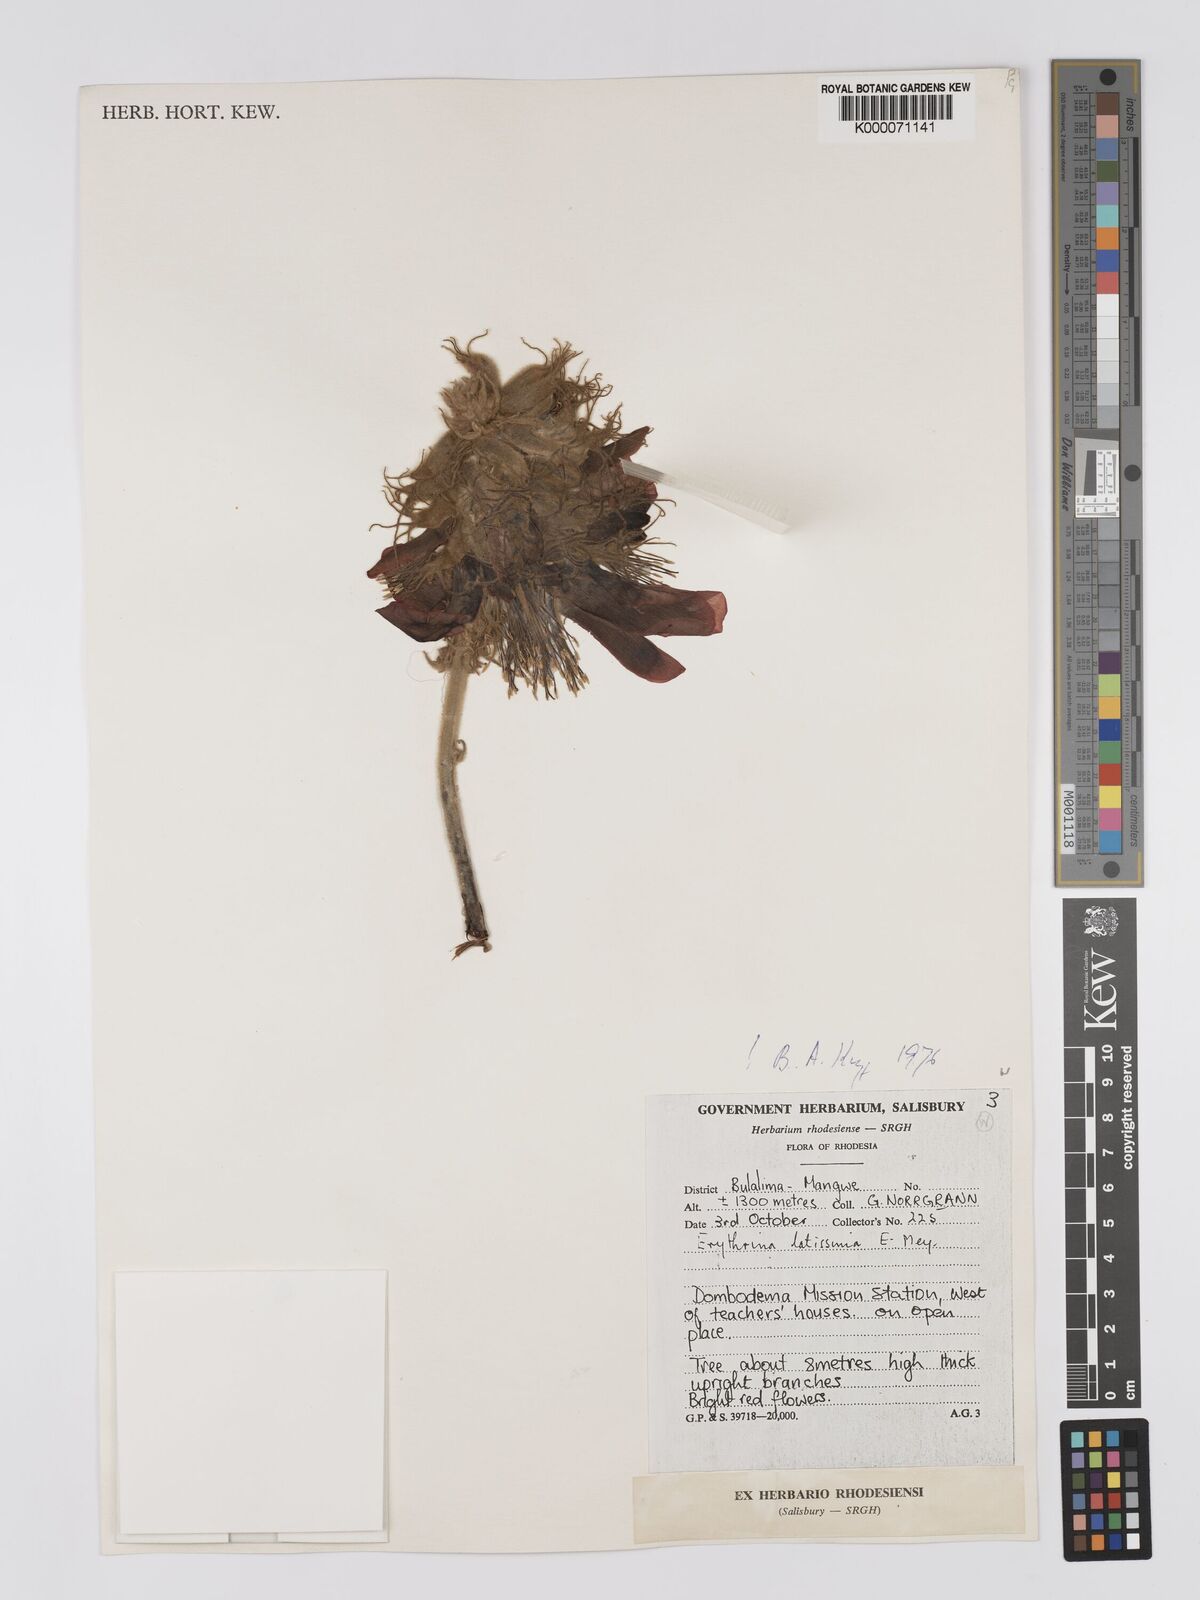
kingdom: Plantae
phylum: Tracheophyta
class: Magnoliopsida
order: Fabales
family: Fabaceae
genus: Erythrina
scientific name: Erythrina latissima
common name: Broad-leaved coral tree
